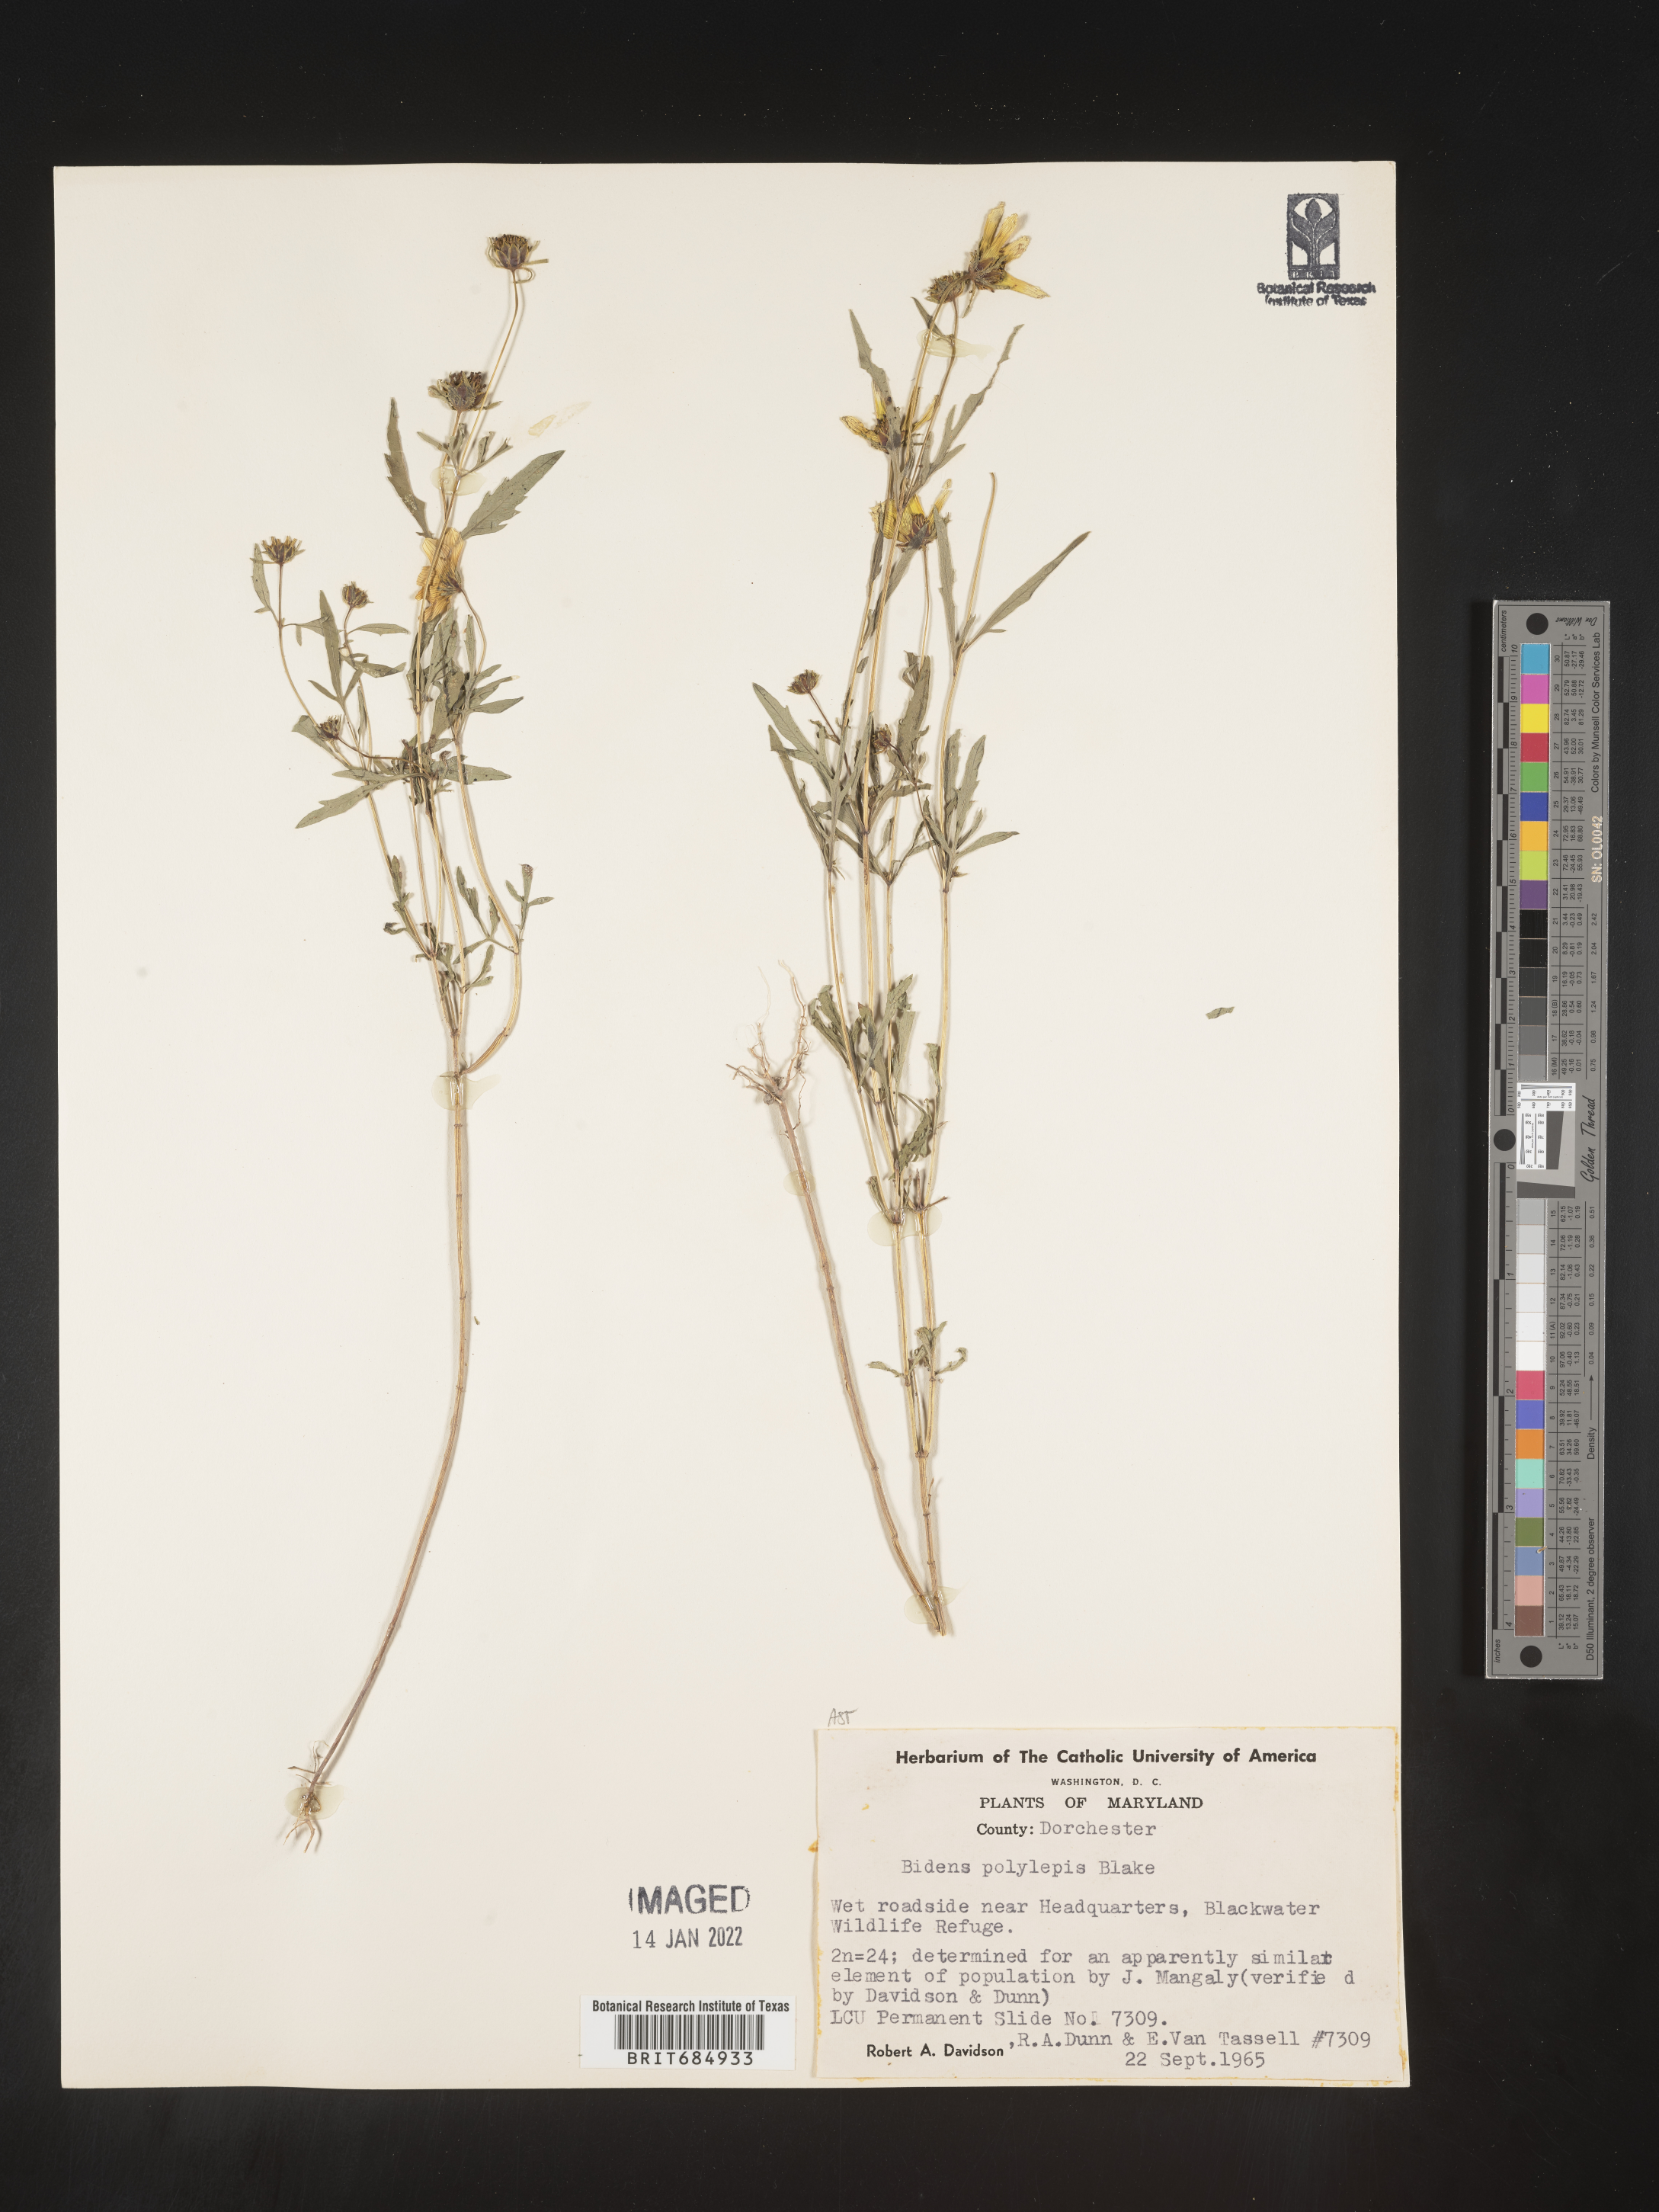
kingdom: Plantae
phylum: Tracheophyta
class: Magnoliopsida
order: Asterales
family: Asteraceae
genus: Bidens
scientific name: Bidens polylepis
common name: Awnless beggarticks
